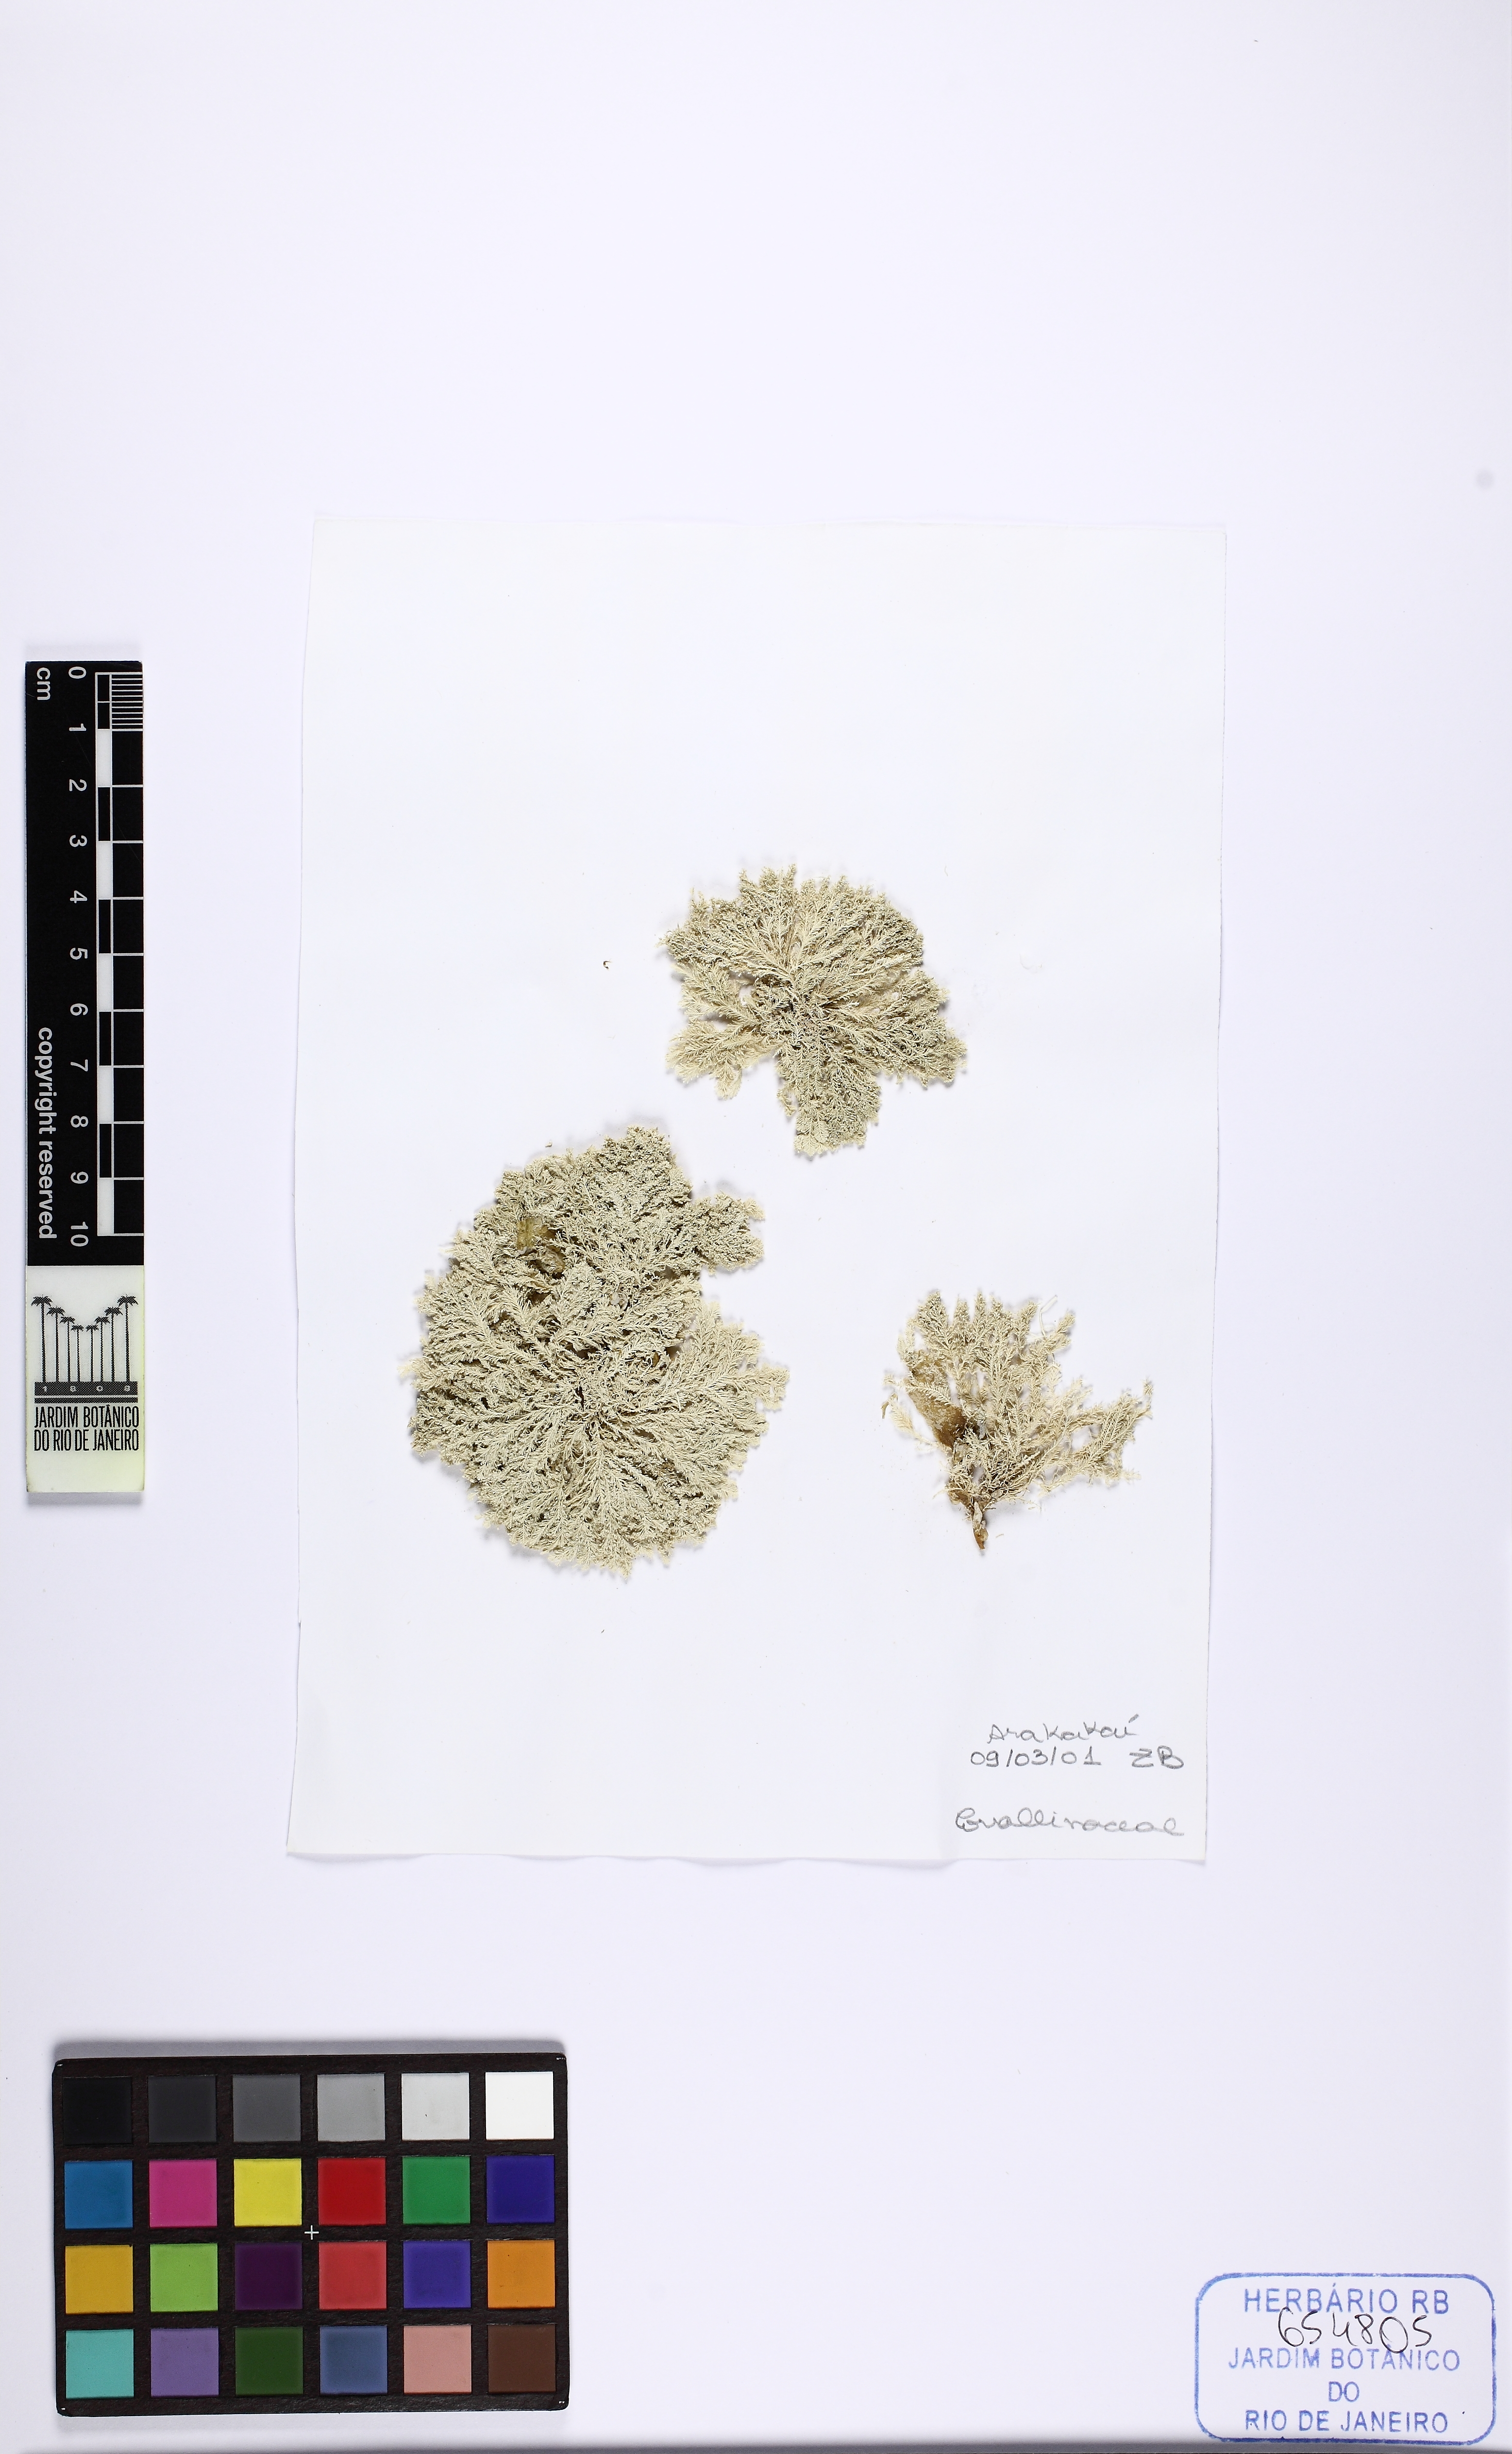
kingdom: Plantae
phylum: Rhodophyta
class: Florideophyceae
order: Corallinales
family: Corallinaceae
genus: Jania
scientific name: Jania
